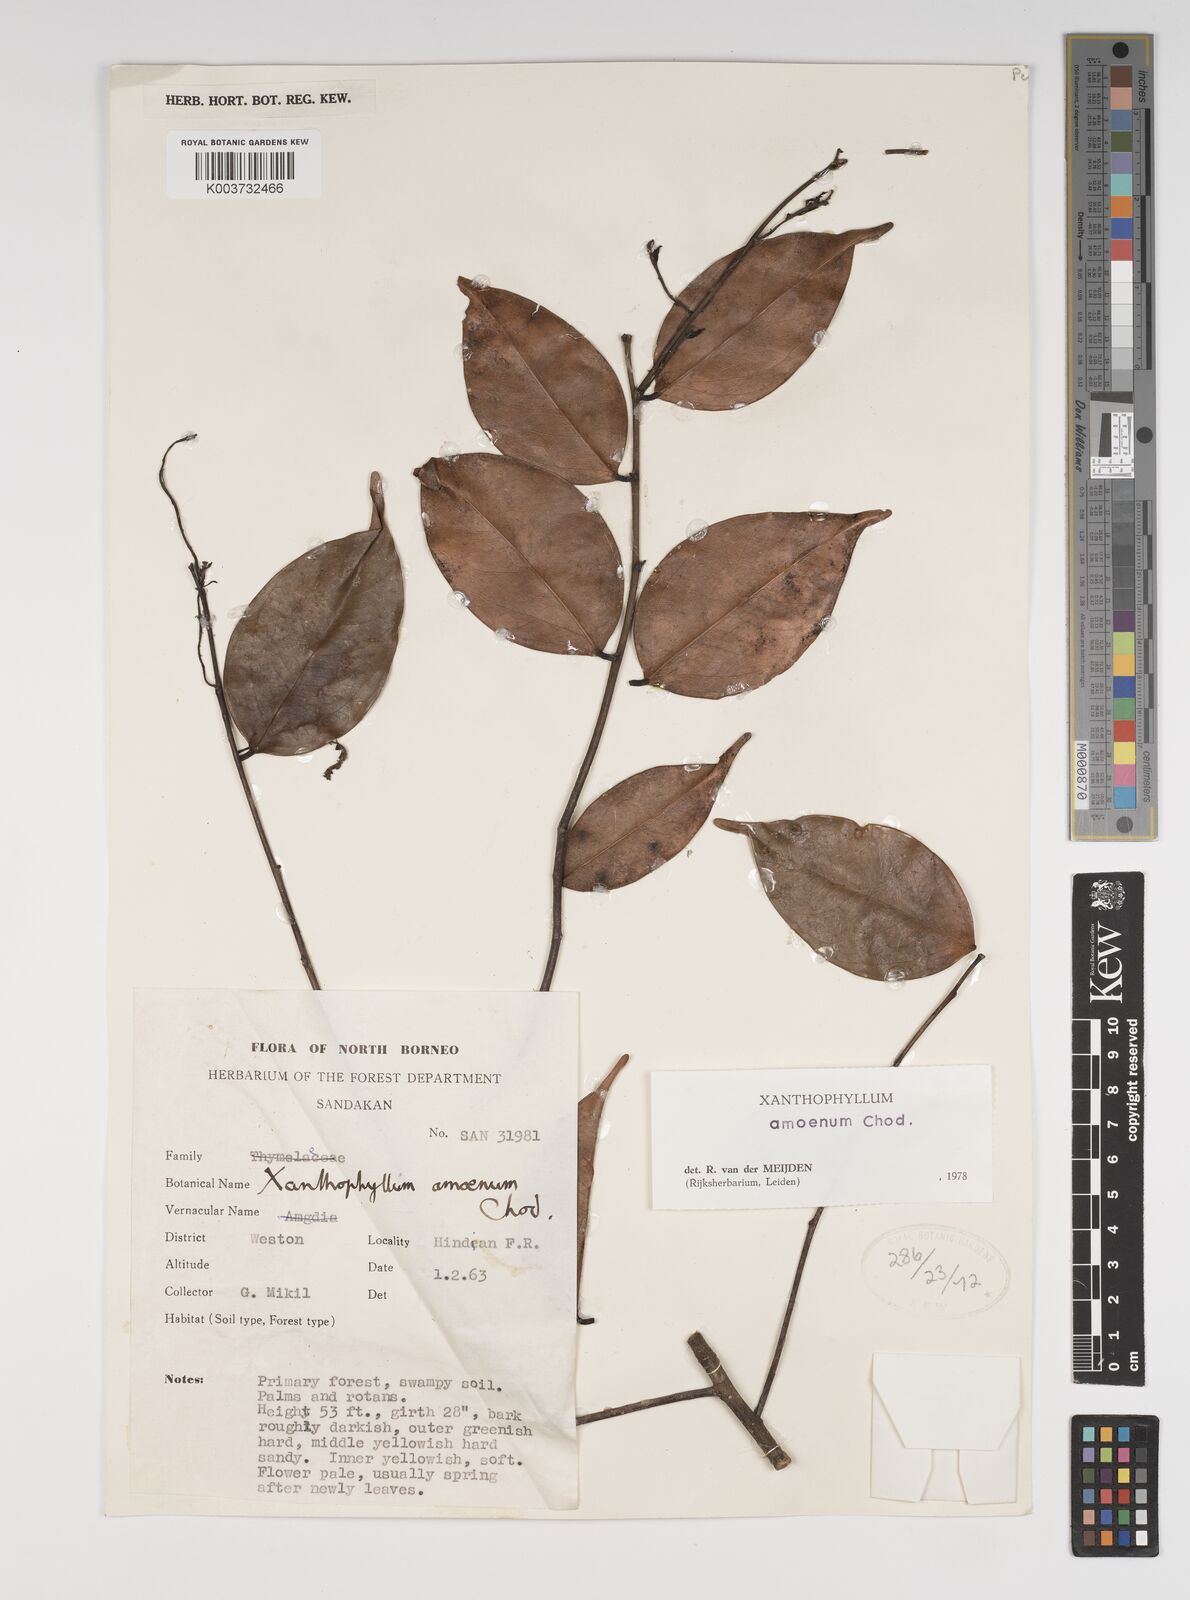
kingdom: Plantae
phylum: Tracheophyta
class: Magnoliopsida
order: Fabales
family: Polygalaceae
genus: Xanthophyllum
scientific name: Xanthophyllum stipitatum
